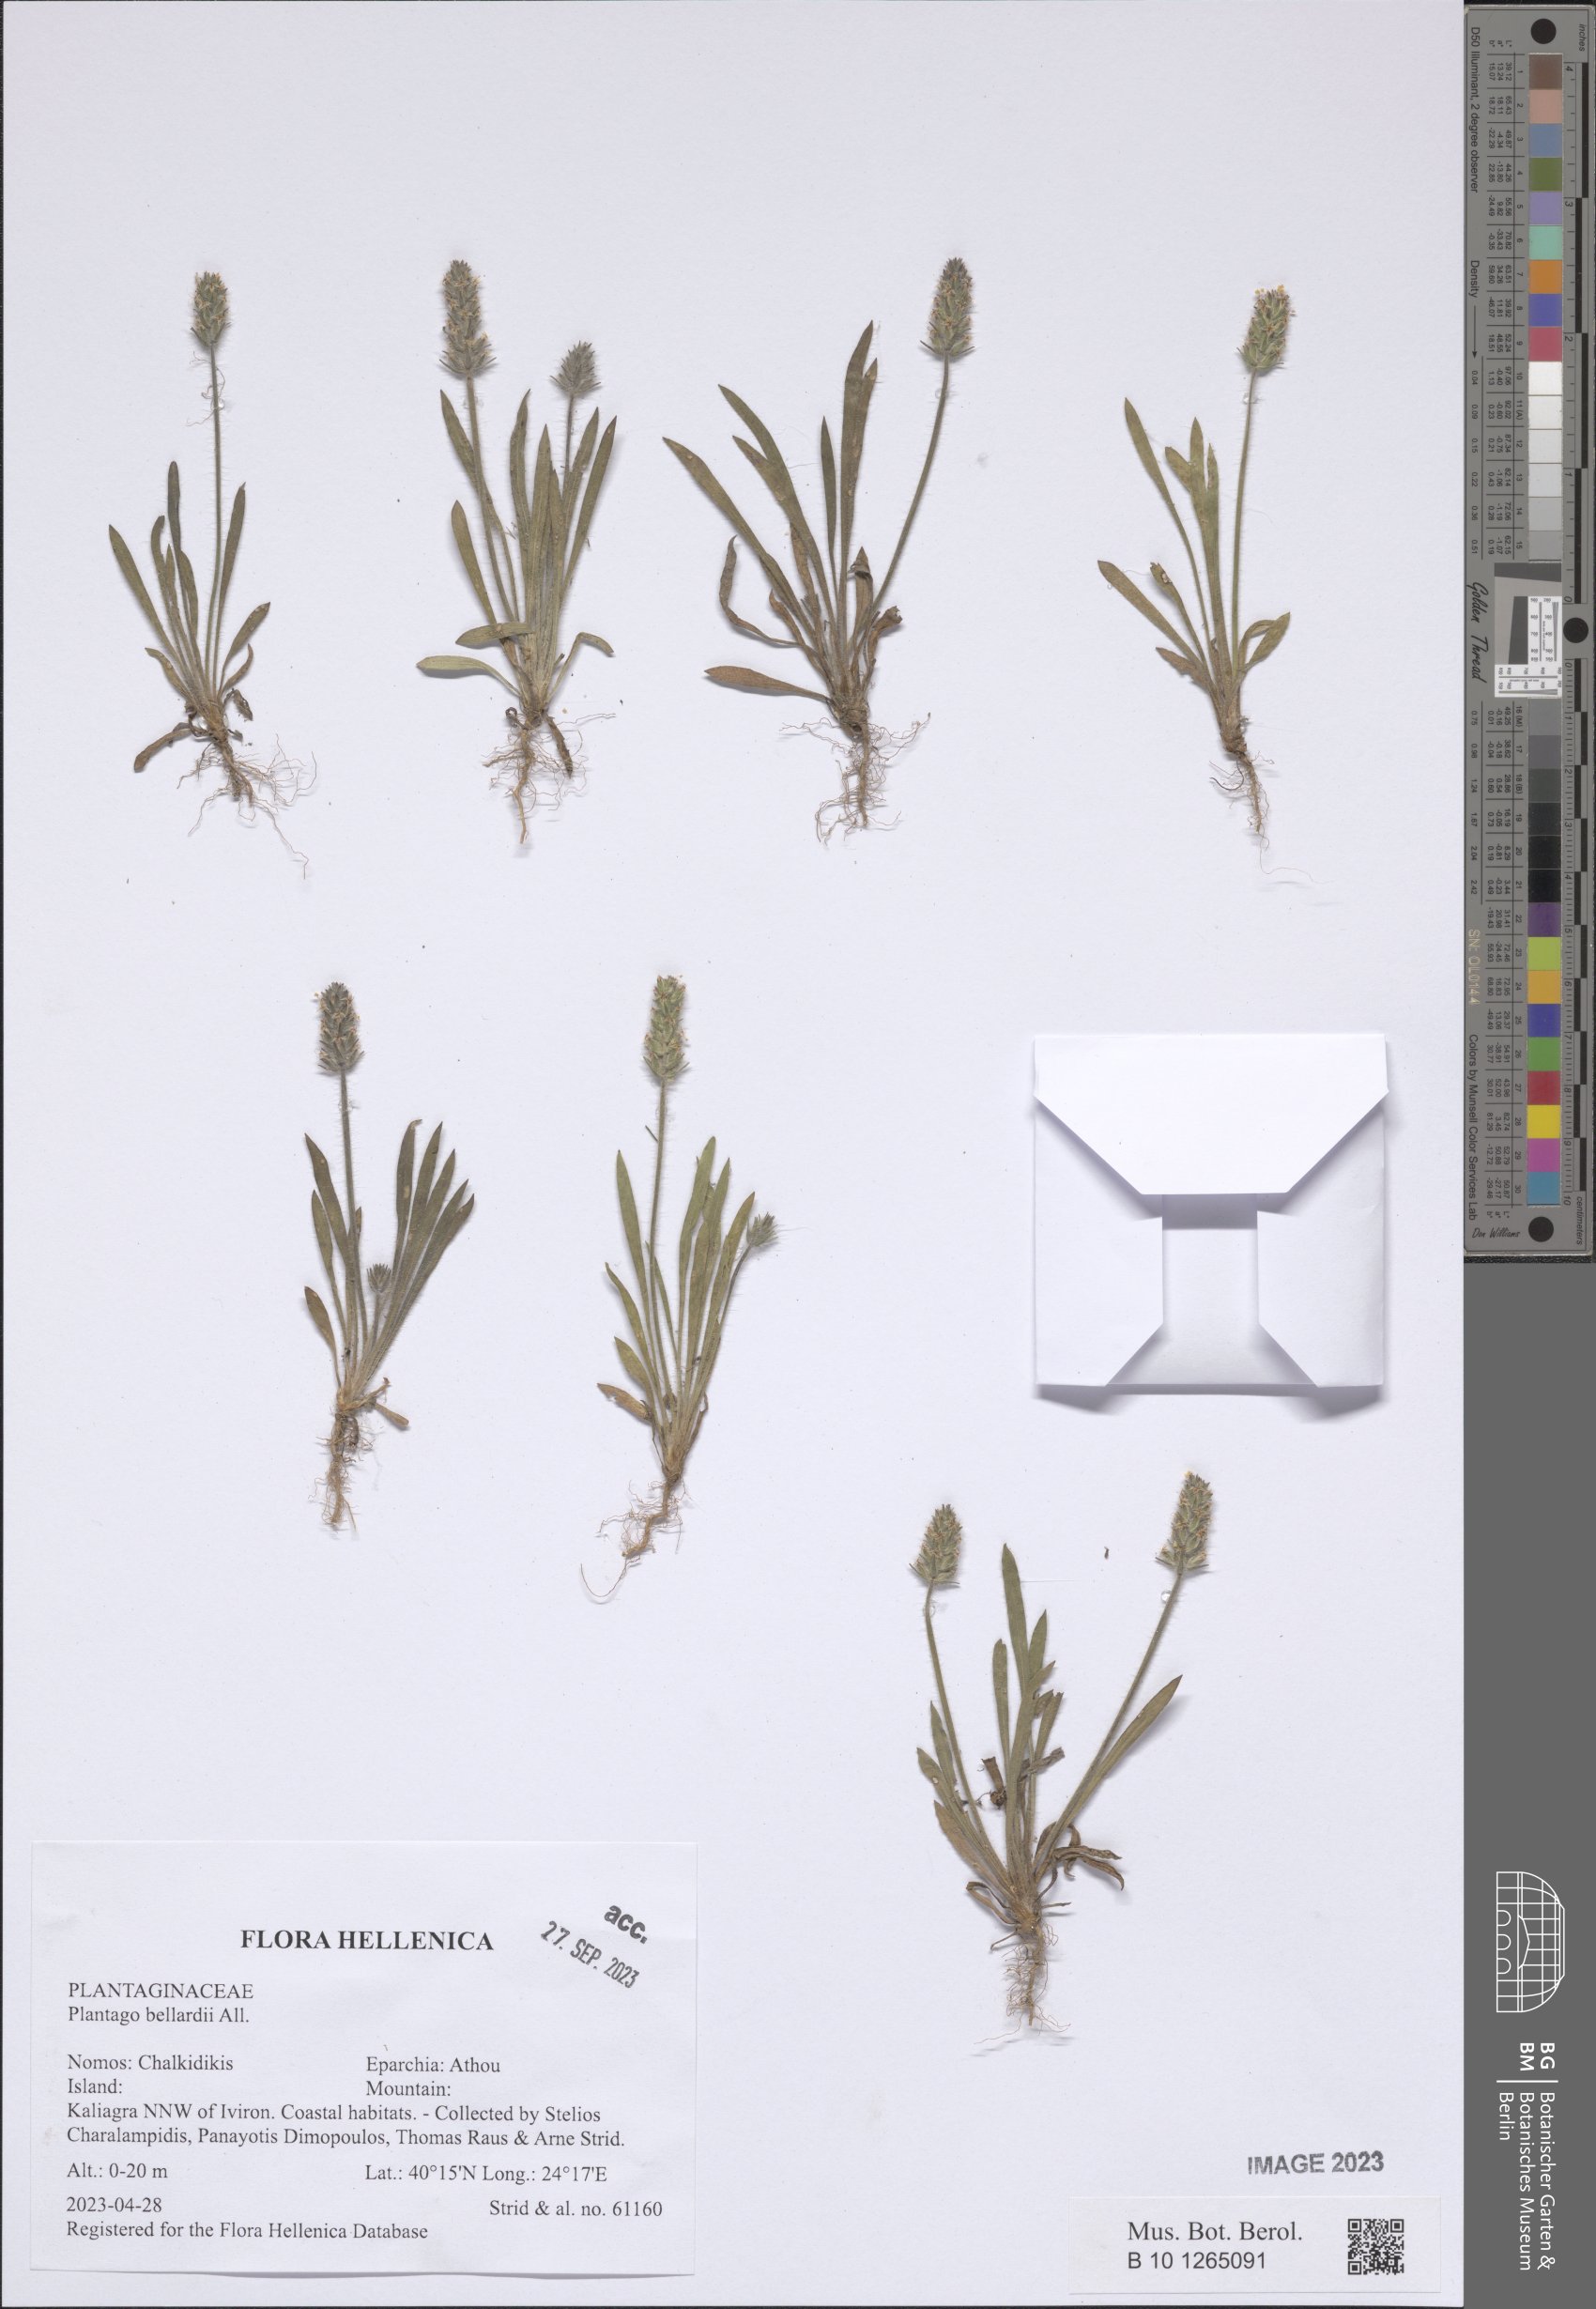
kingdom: Plantae
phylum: Tracheophyta
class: Magnoliopsida
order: Lamiales
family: Plantaginaceae
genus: Plantago
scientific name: Plantago bellardii
